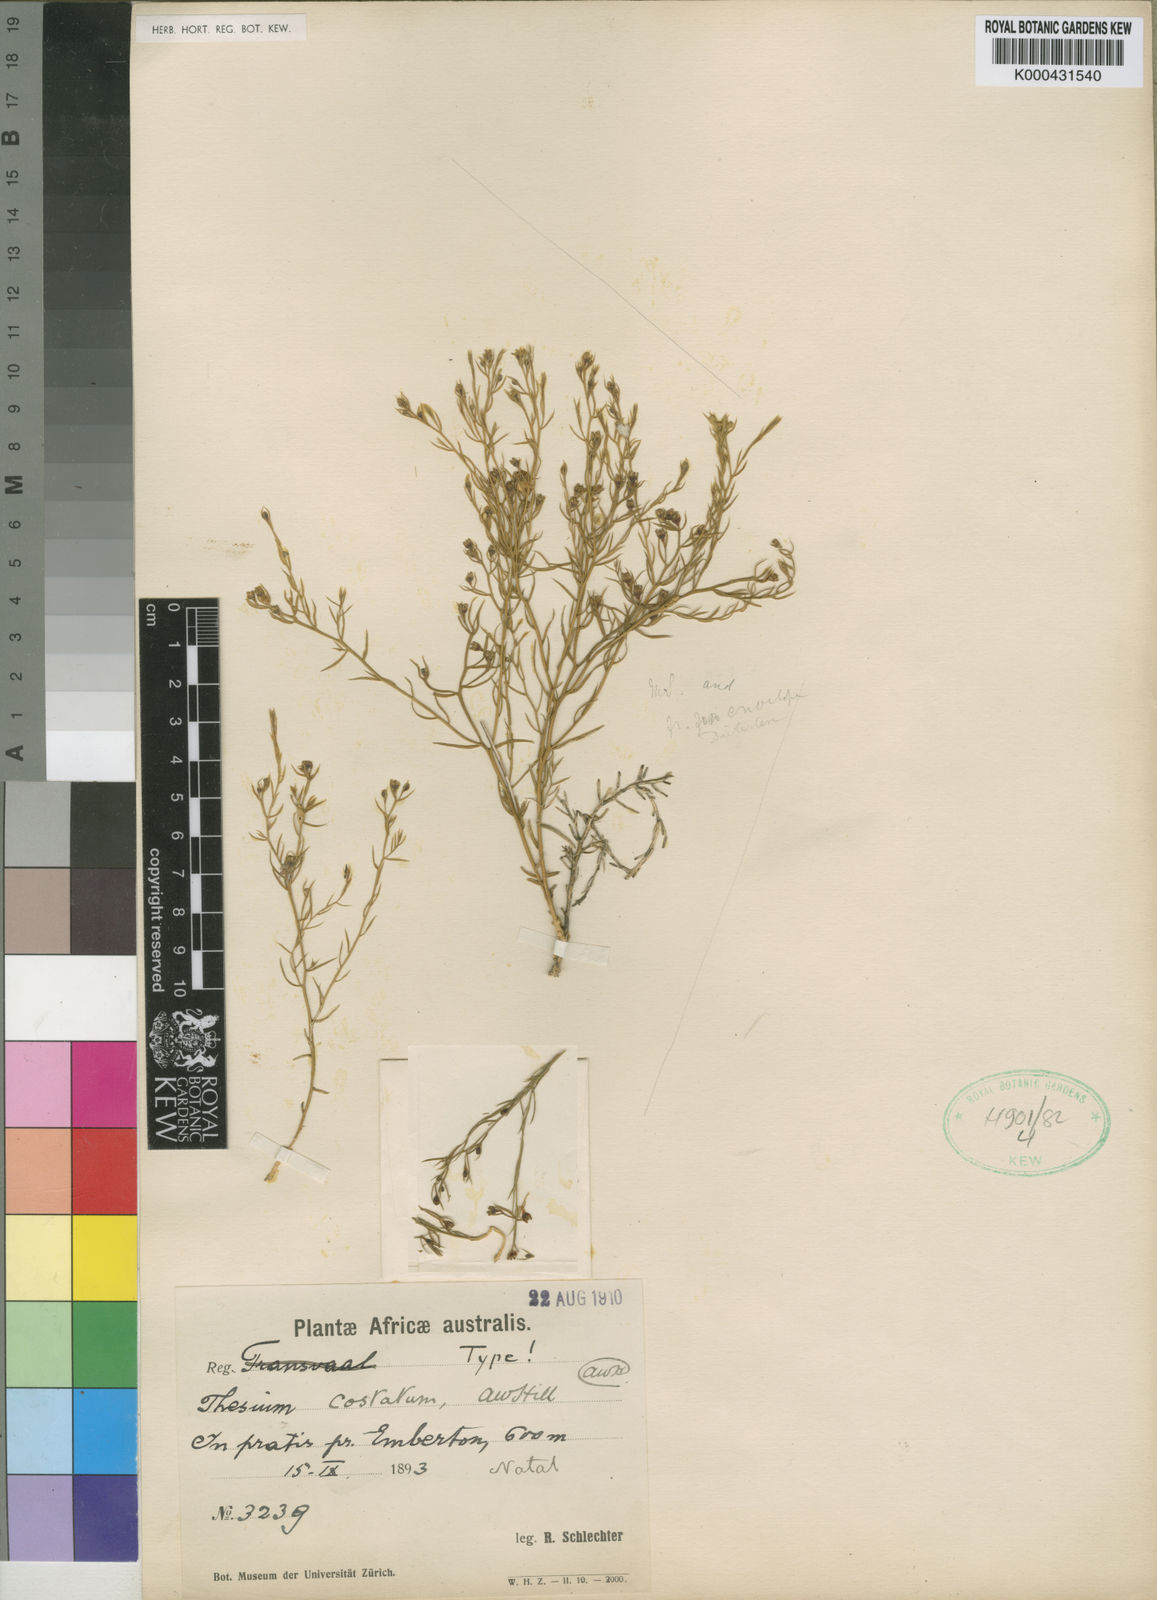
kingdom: Plantae
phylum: Tracheophyta
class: Magnoliopsida
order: Santalales
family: Thesiaceae
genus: Thesium
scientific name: Thesium costatum
